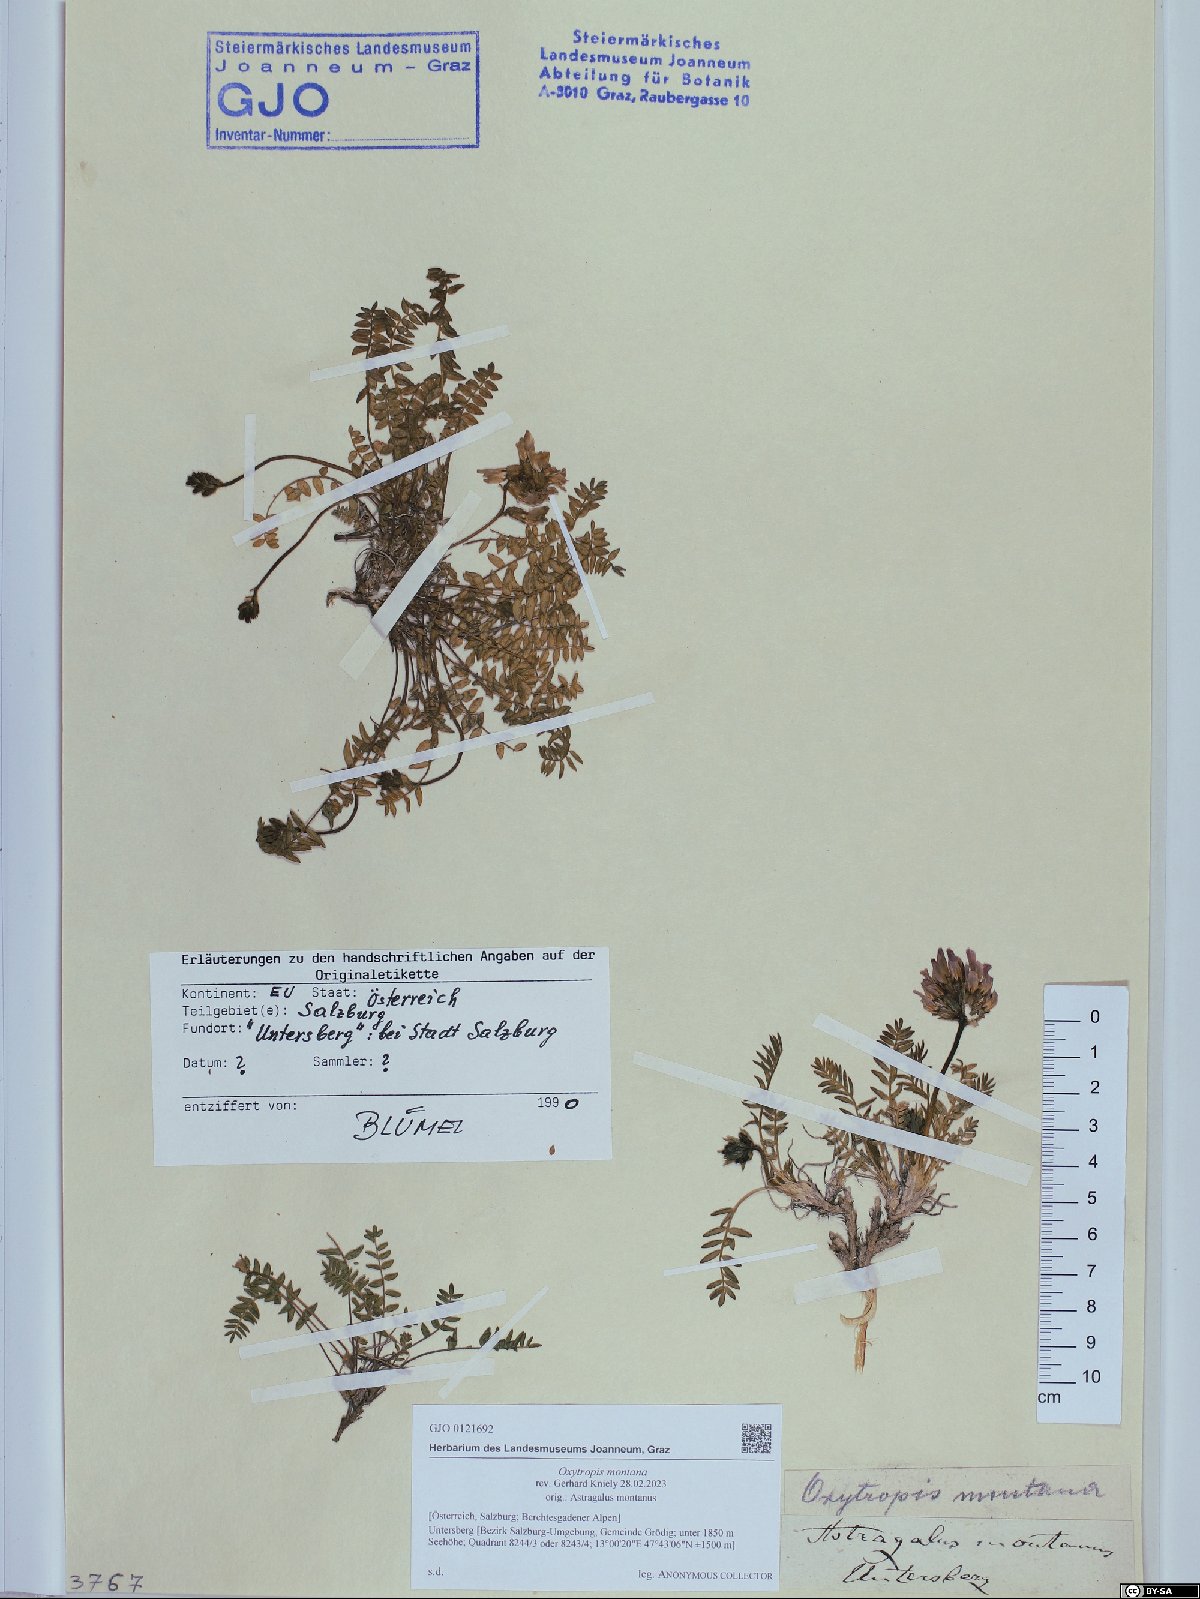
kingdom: Plantae
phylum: Tracheophyta
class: Magnoliopsida
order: Fabales
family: Fabaceae
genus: Oxytropis
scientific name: Oxytropis montana
